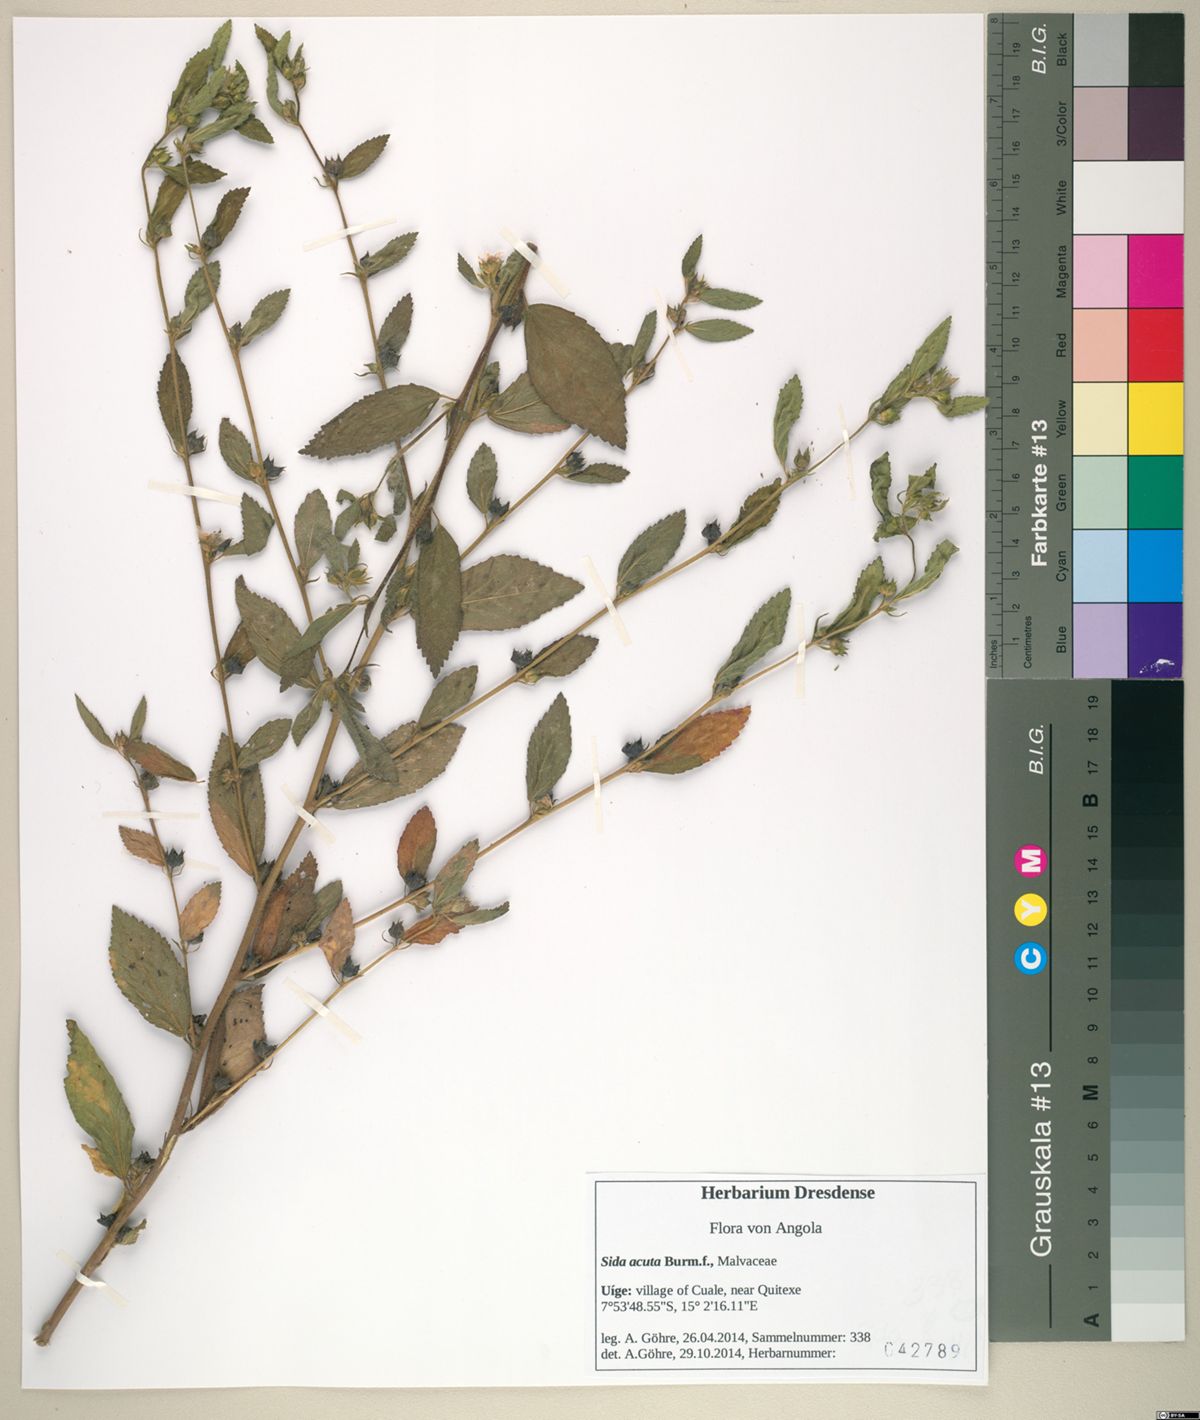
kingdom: Plantae
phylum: Tracheophyta
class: Magnoliopsida
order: Malvales
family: Malvaceae
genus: Sida
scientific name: Sida acuta
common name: Common wireweed
